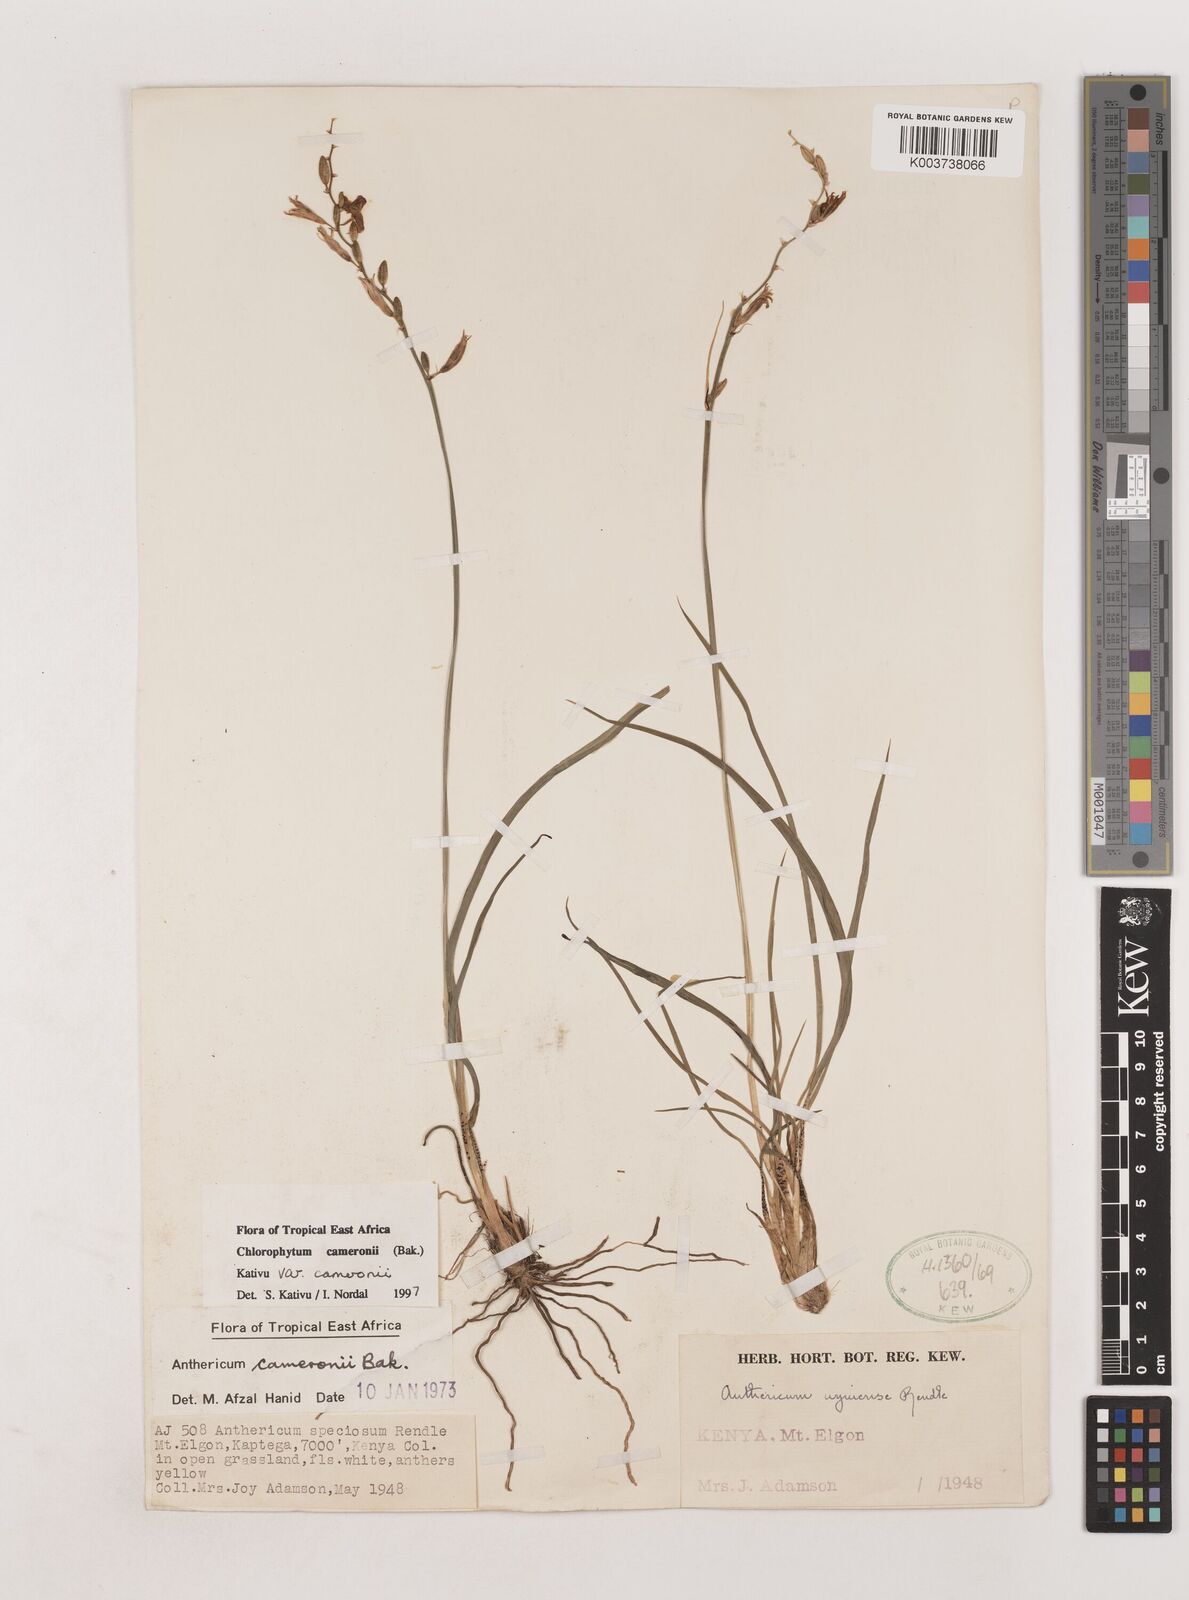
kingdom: Plantae
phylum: Tracheophyta
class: Liliopsida
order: Asparagales
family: Asparagaceae
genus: Chlorophytum
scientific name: Chlorophytum cameronii
